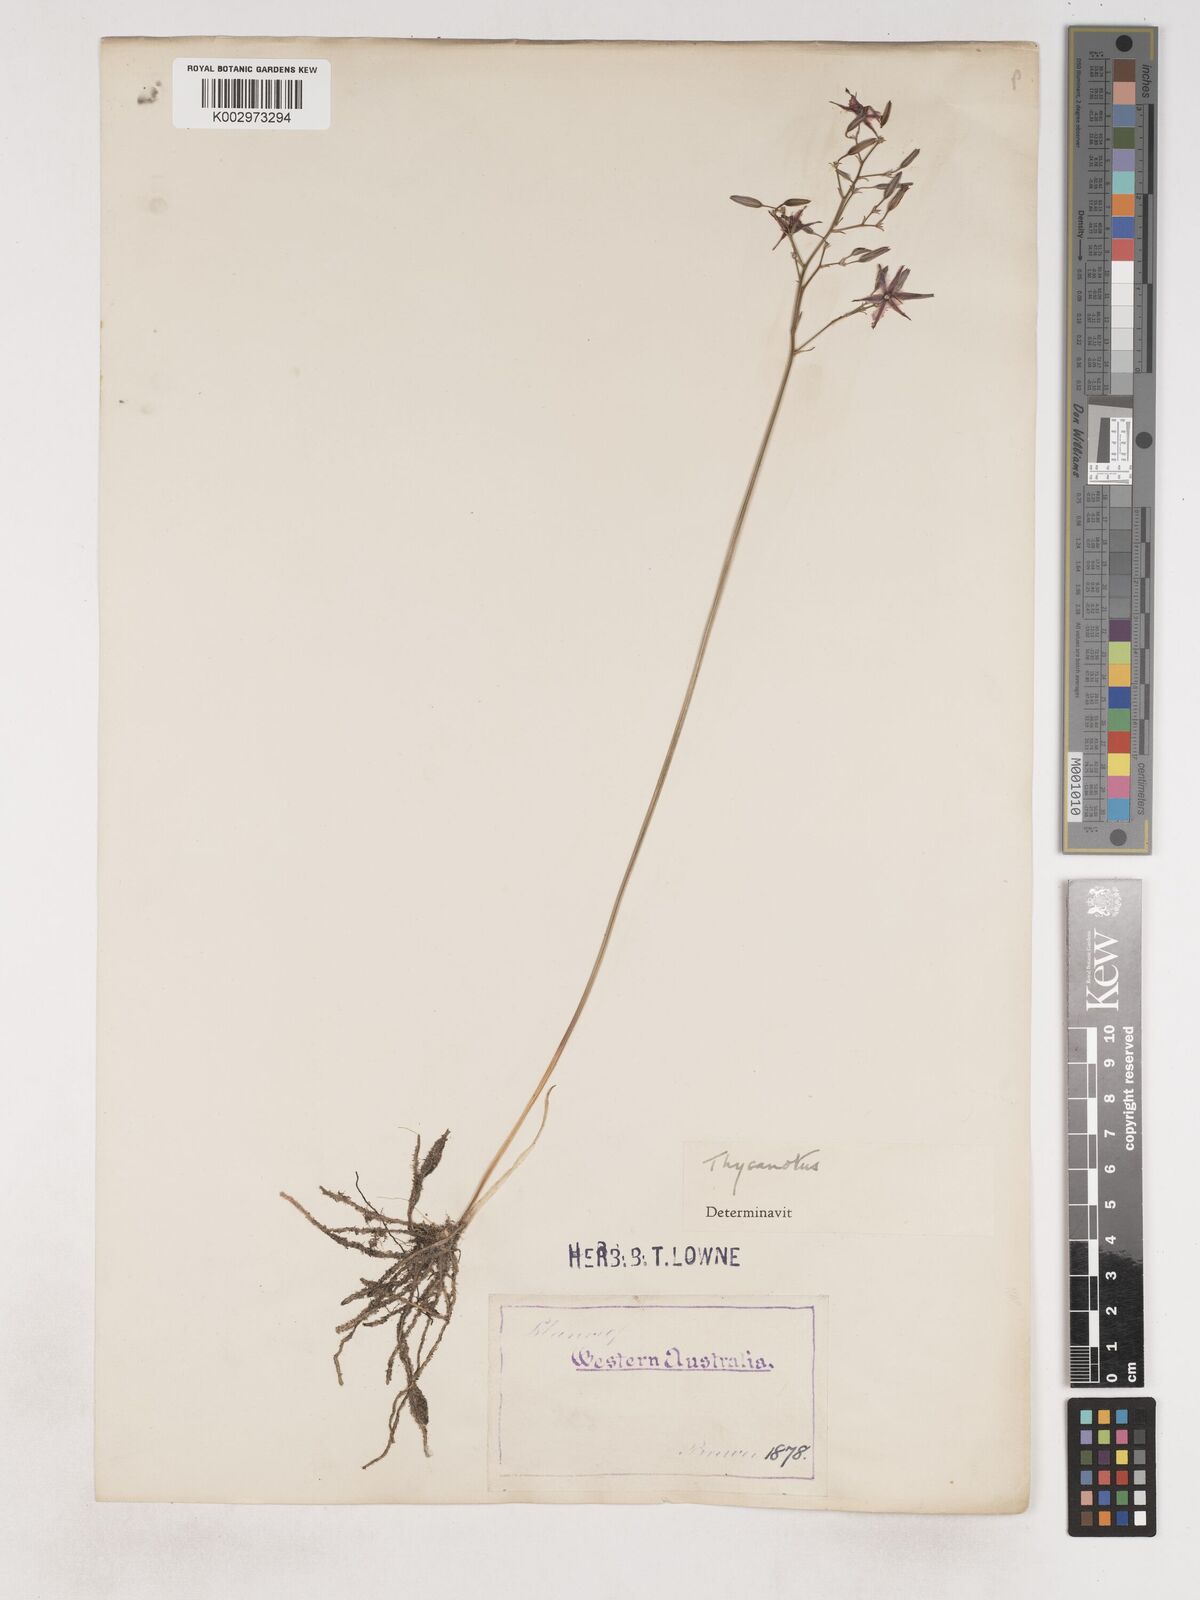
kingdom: Plantae
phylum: Tracheophyta
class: Liliopsida
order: Asparagales
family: Asparagaceae
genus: Thysanotus
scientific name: Thysanotus thyrsoideus
